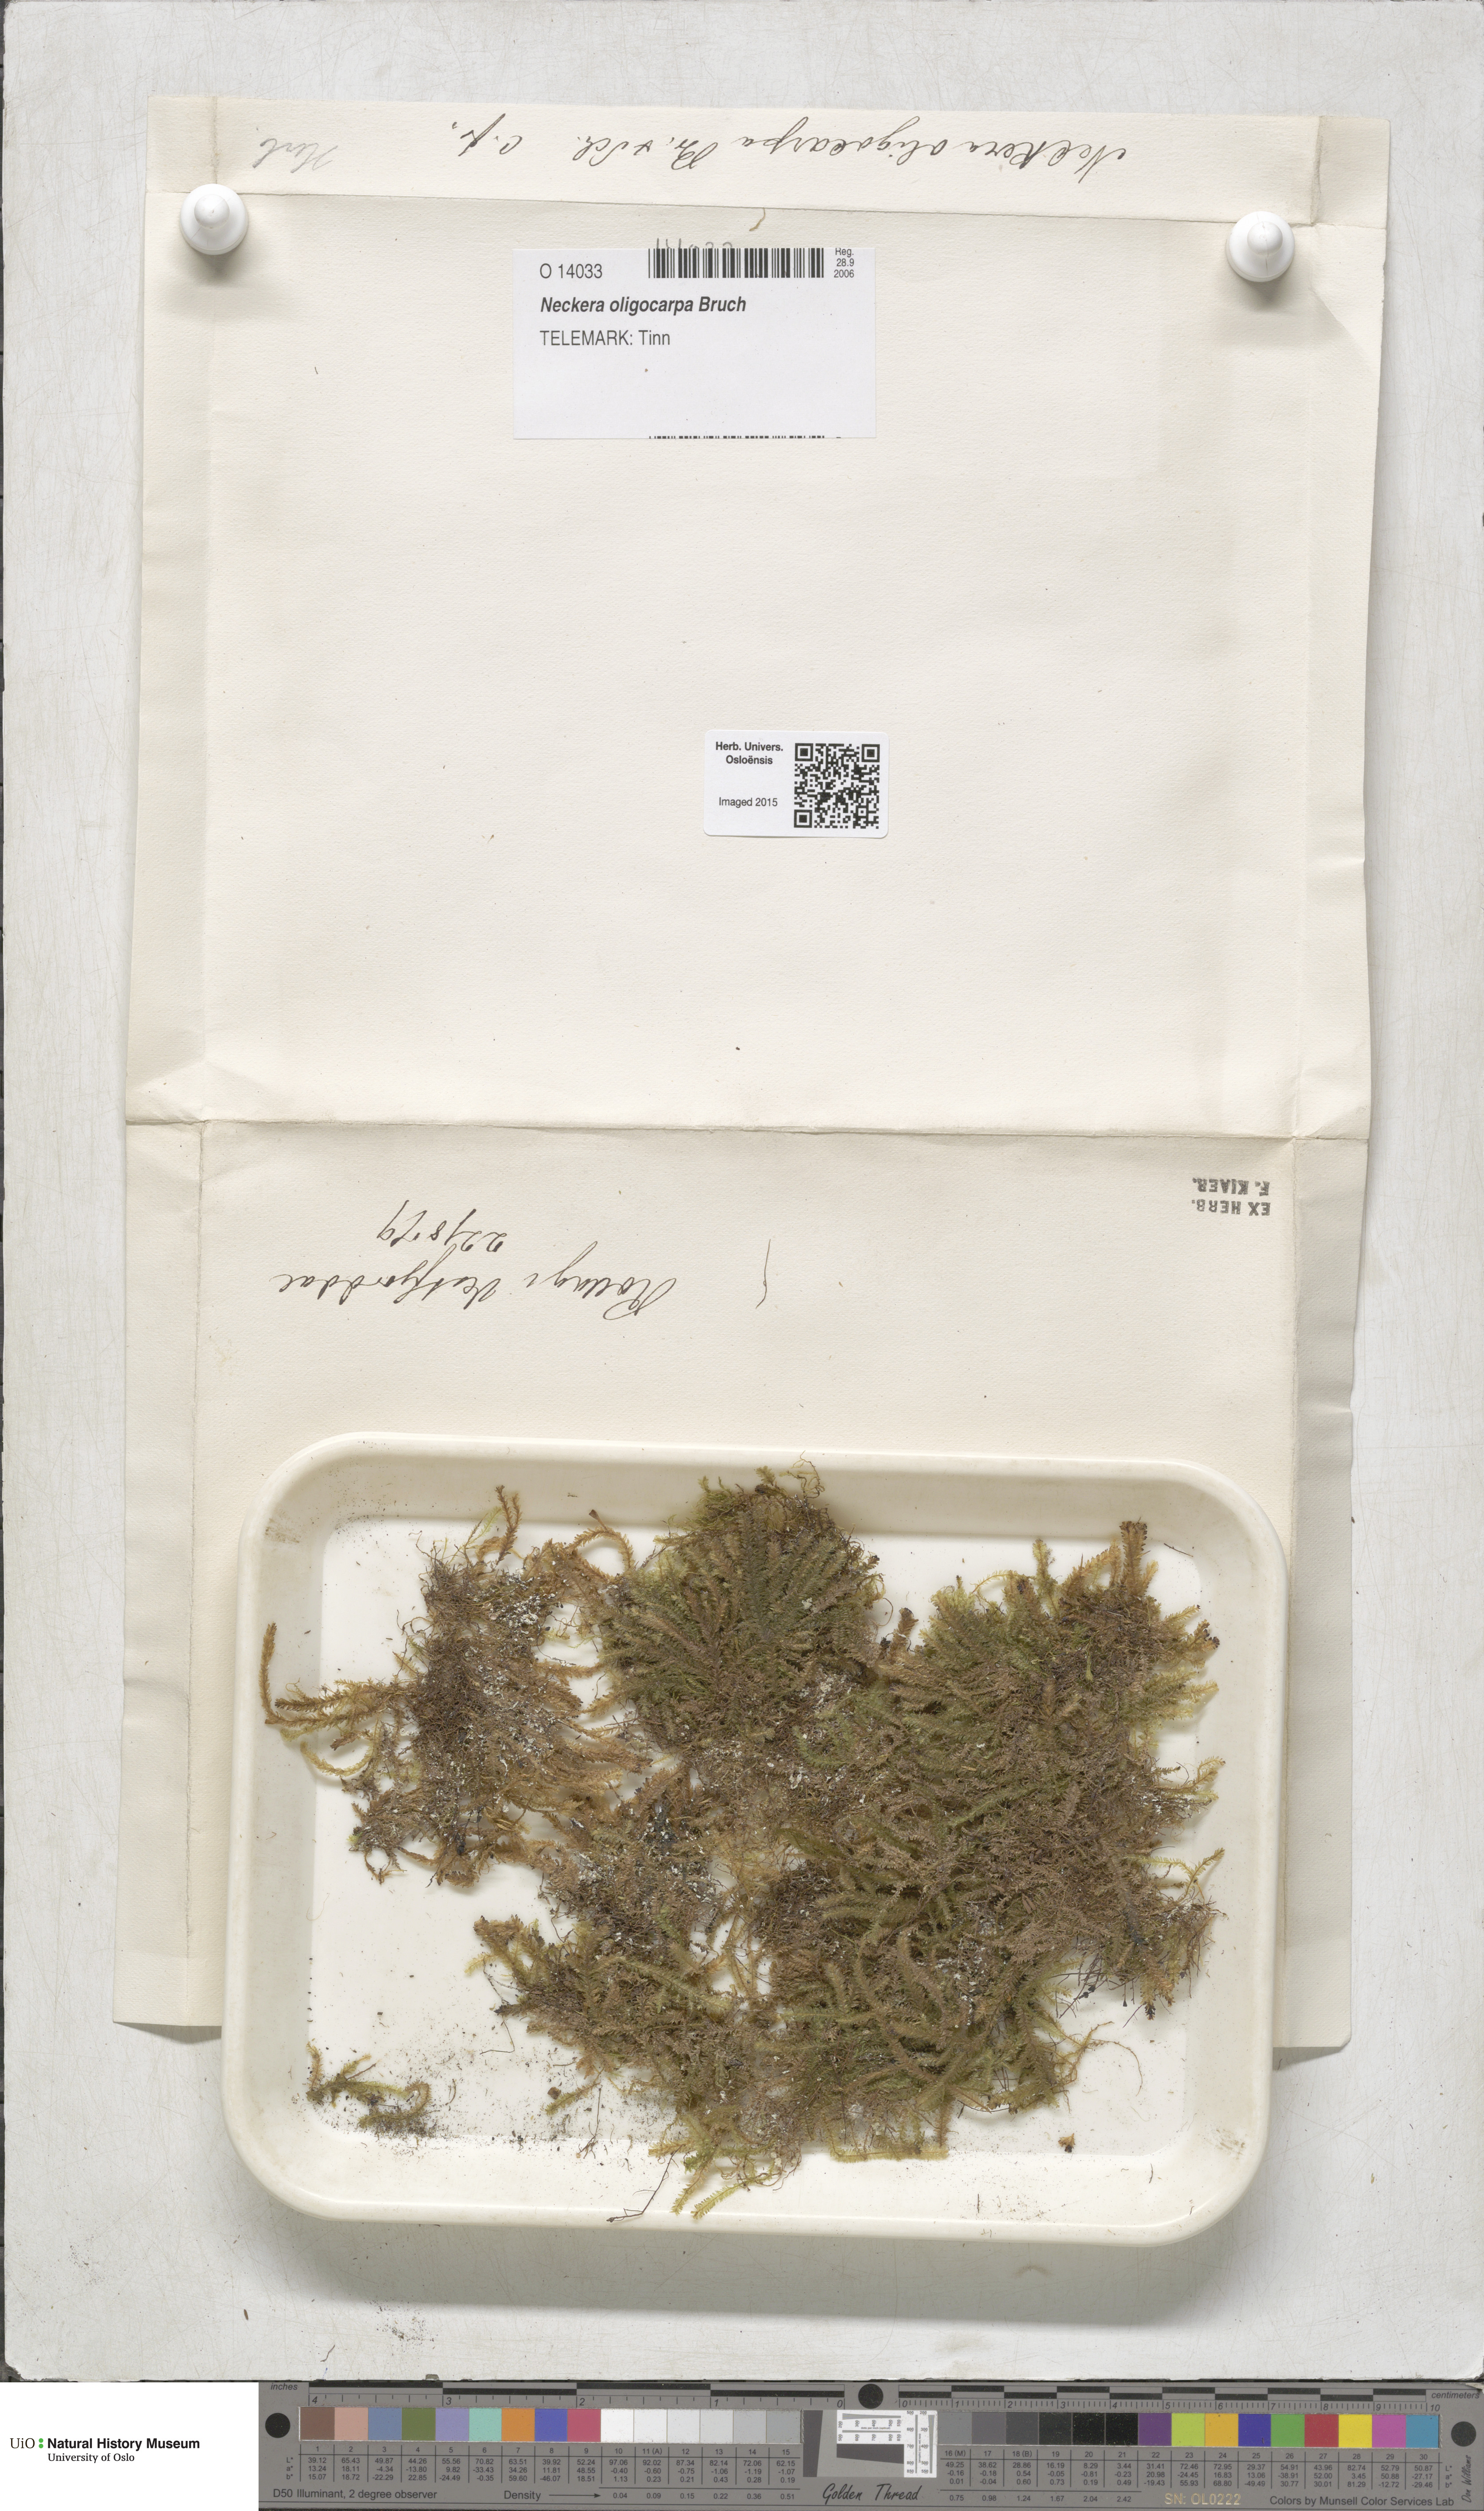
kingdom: Plantae
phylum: Bryophyta
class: Bryopsida
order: Hypnales
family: Neckeraceae
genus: Neckera
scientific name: Neckera oligocarpa
